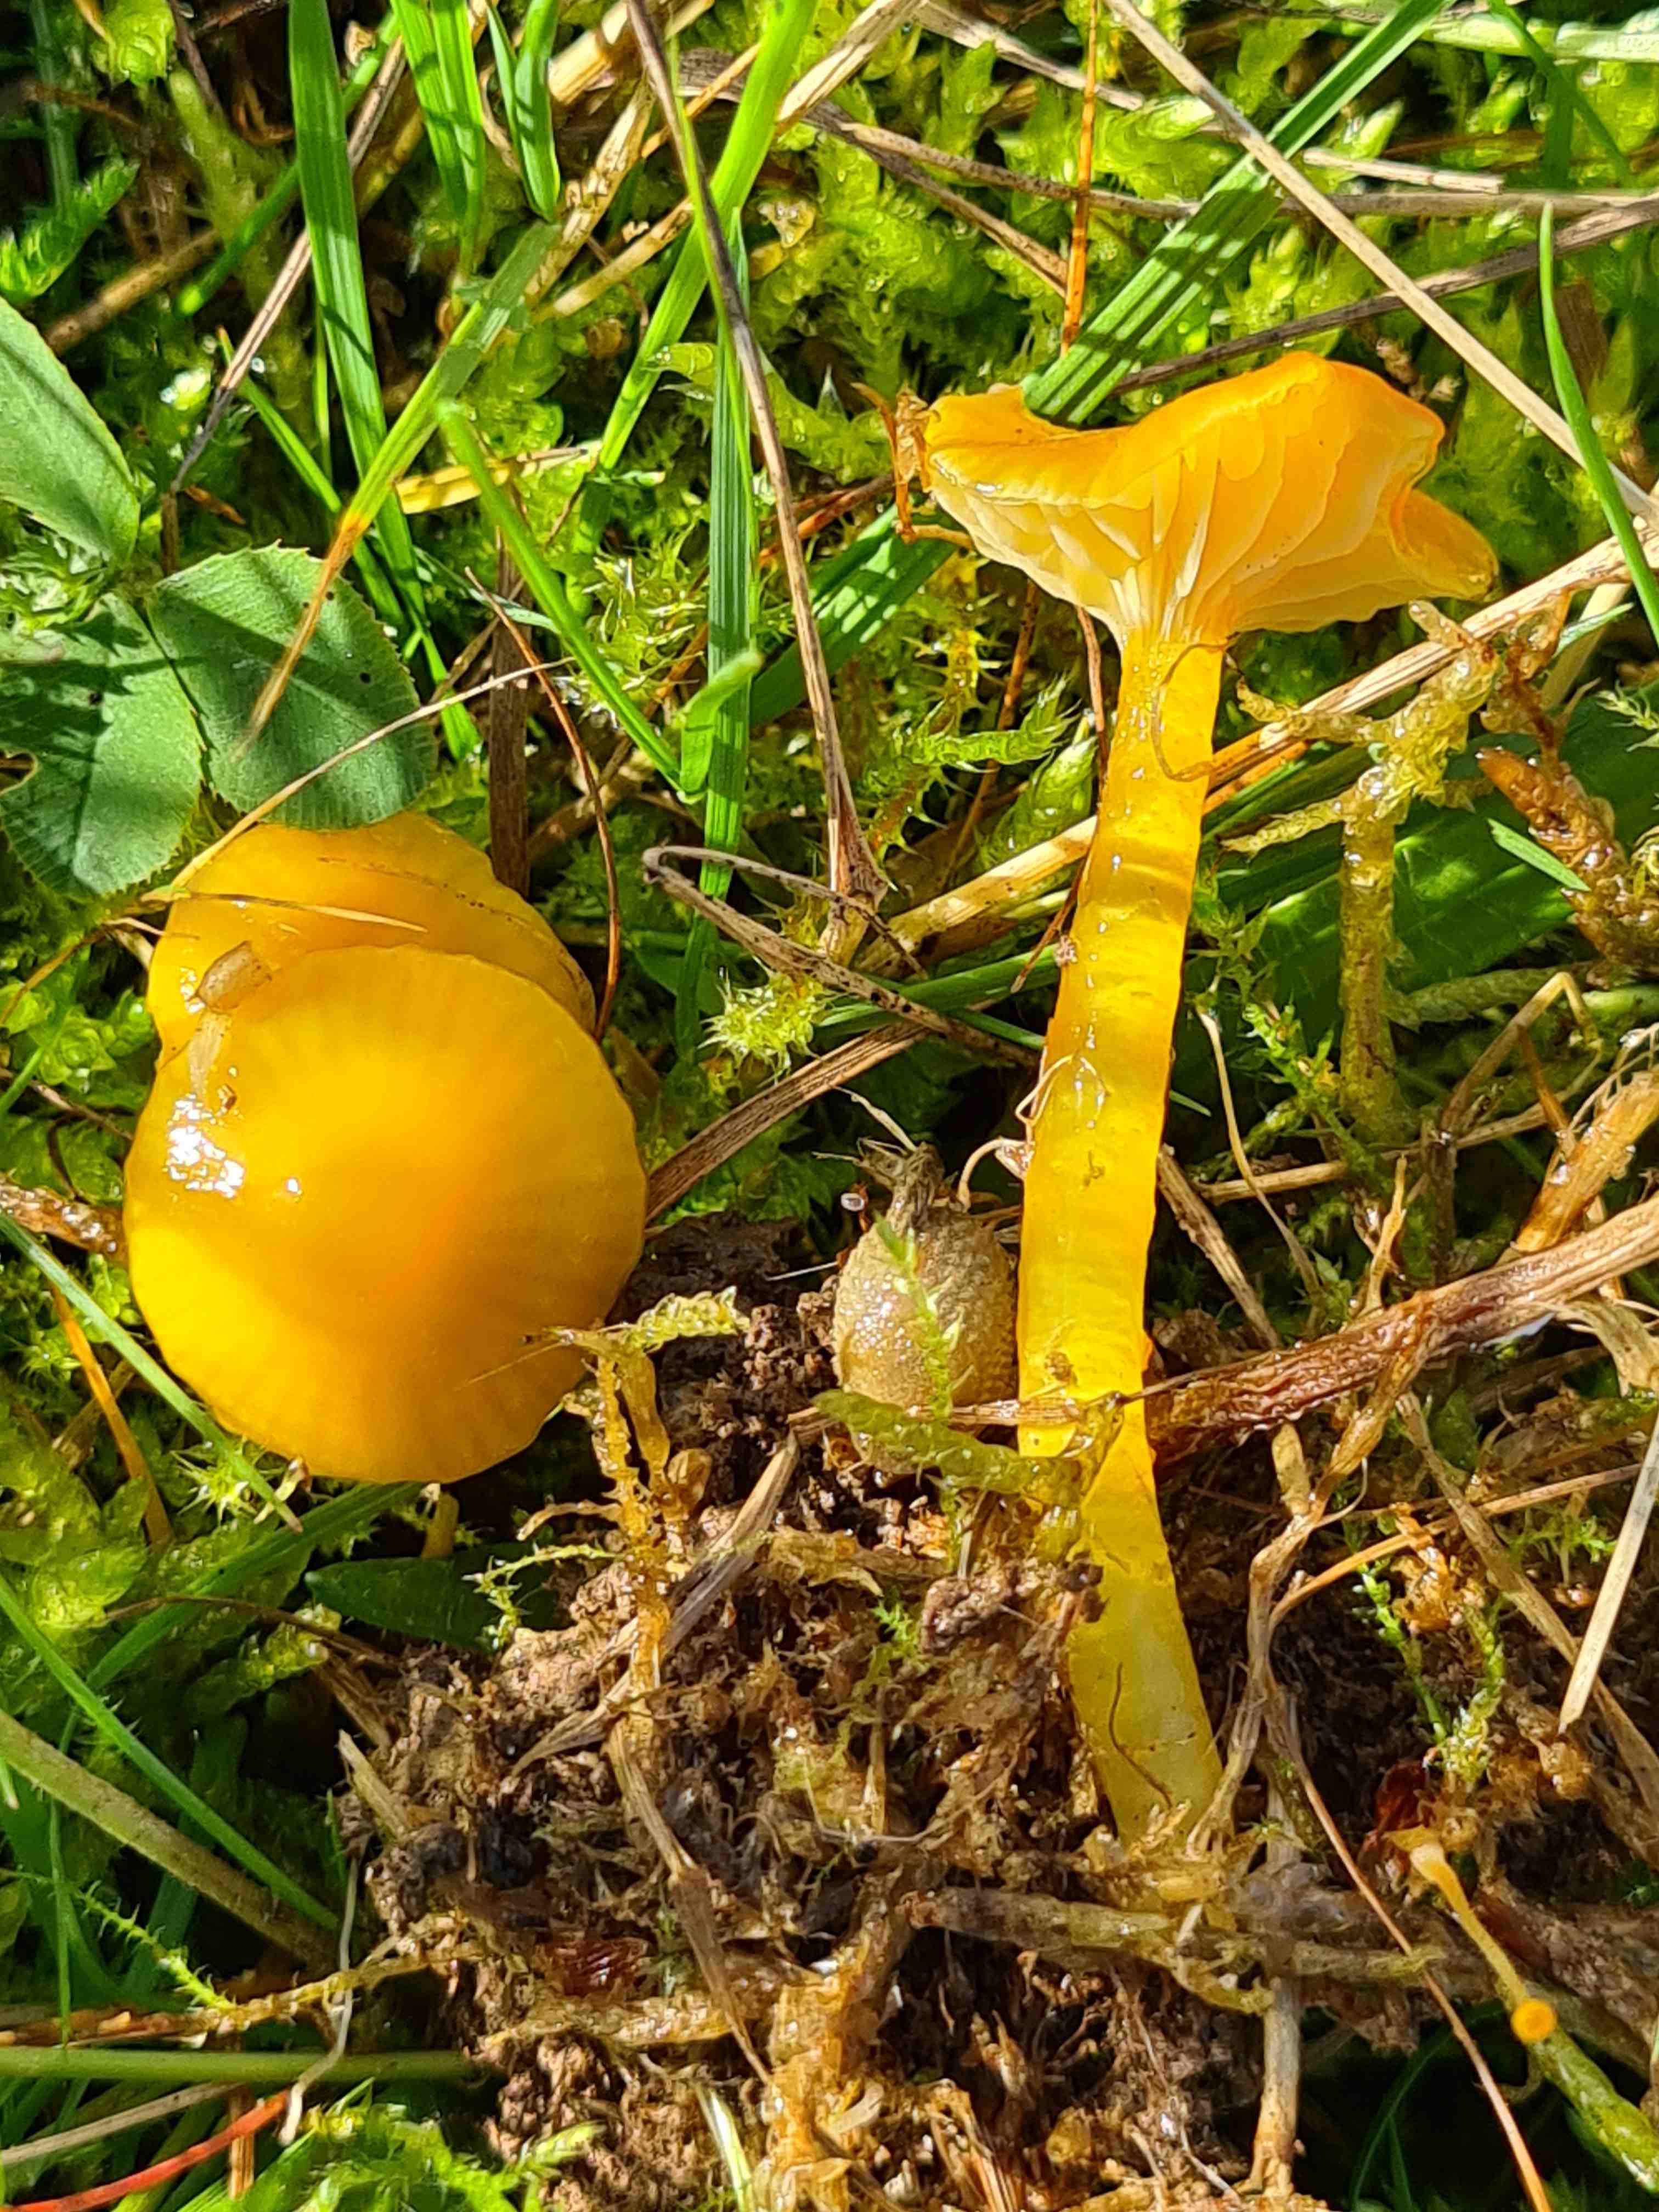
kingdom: Fungi
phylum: Basidiomycota
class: Agaricomycetes
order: Agaricales
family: Hygrophoraceae
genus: Hygrocybe
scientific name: Hygrocybe glutinipes
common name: slimstokket vokshat
